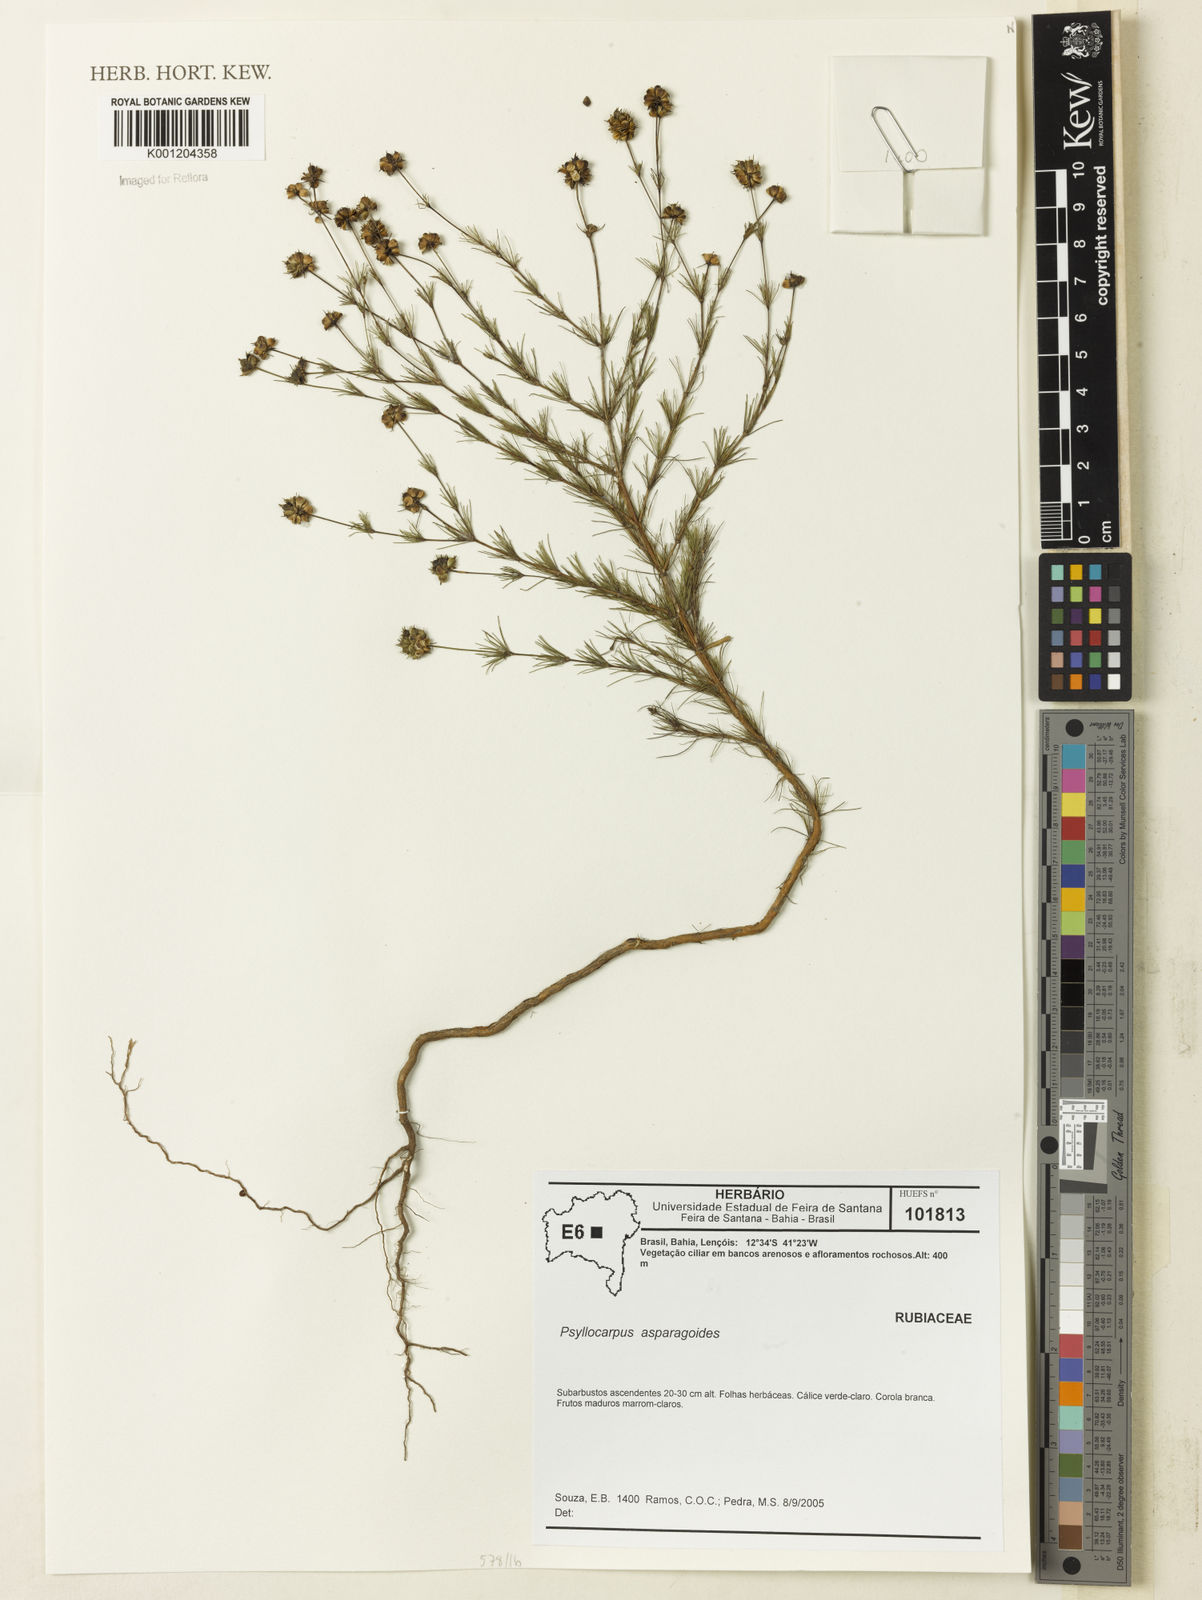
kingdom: Plantae
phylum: Tracheophyta
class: Magnoliopsida
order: Gentianales
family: Rubiaceae
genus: Psyllocarpus
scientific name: Psyllocarpus asparagoides
